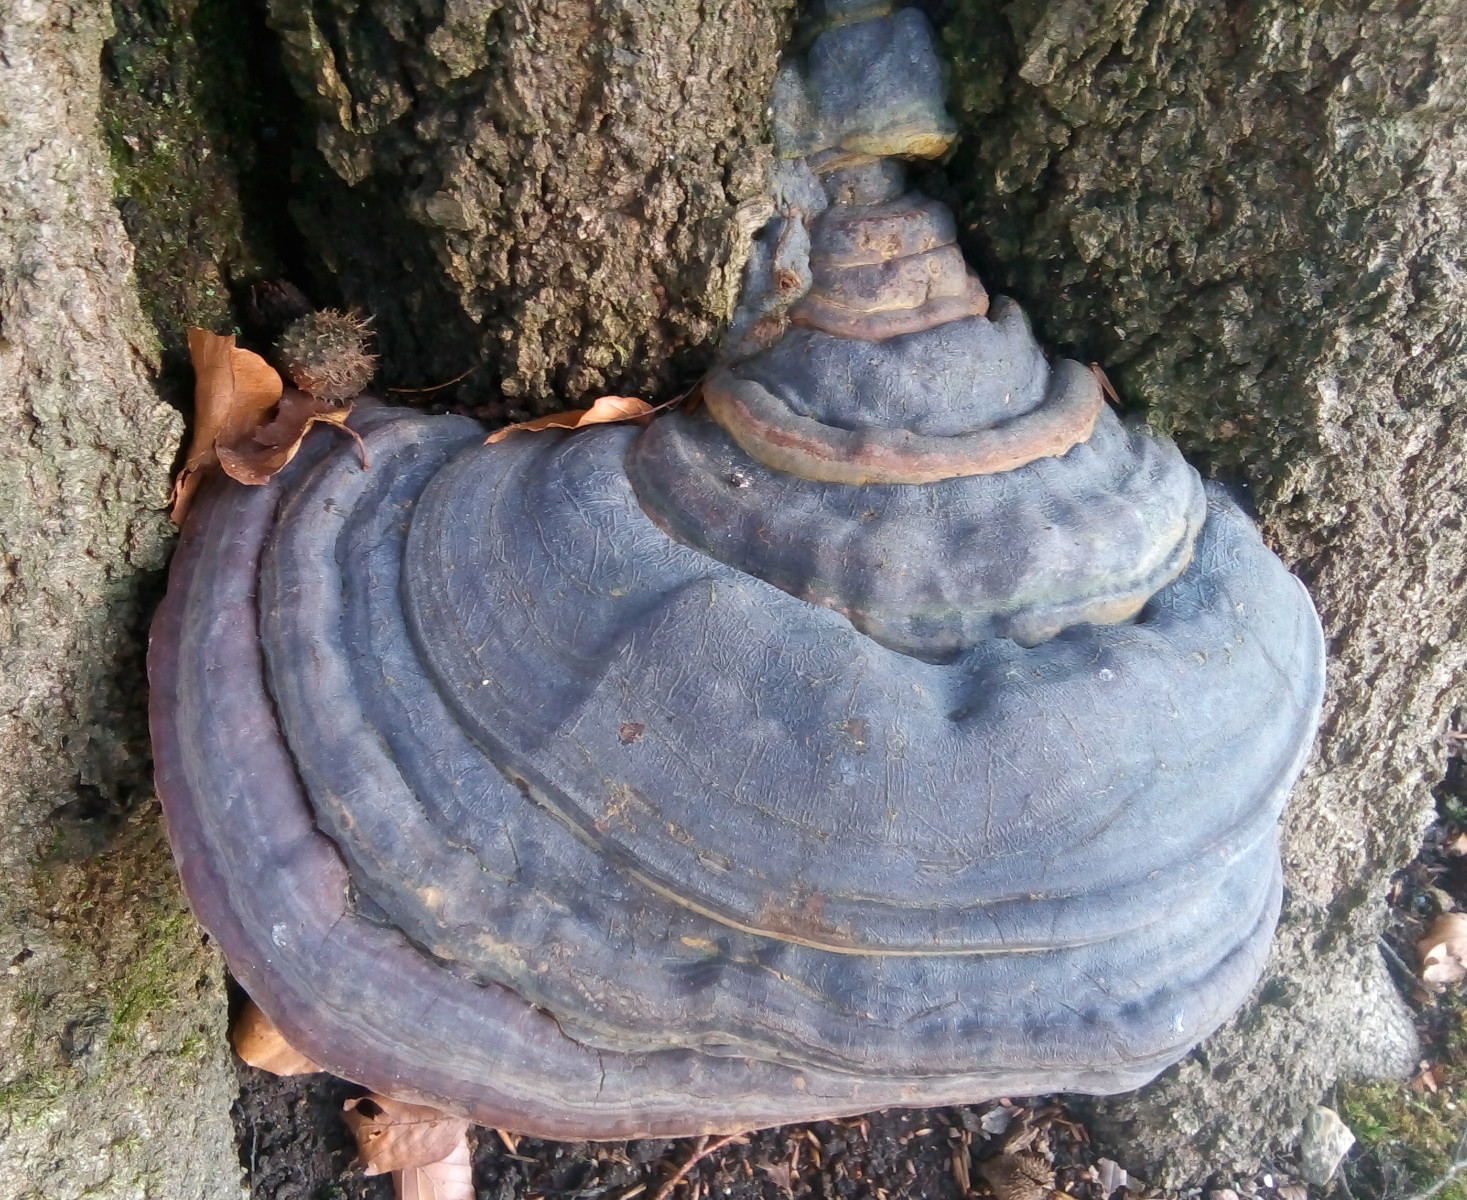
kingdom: Fungi
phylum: Basidiomycota
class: Agaricomycetes
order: Polyporales
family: Polyporaceae
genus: Ganoderma
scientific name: Ganoderma pfeifferi
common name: kobberrød lakporesvamp
